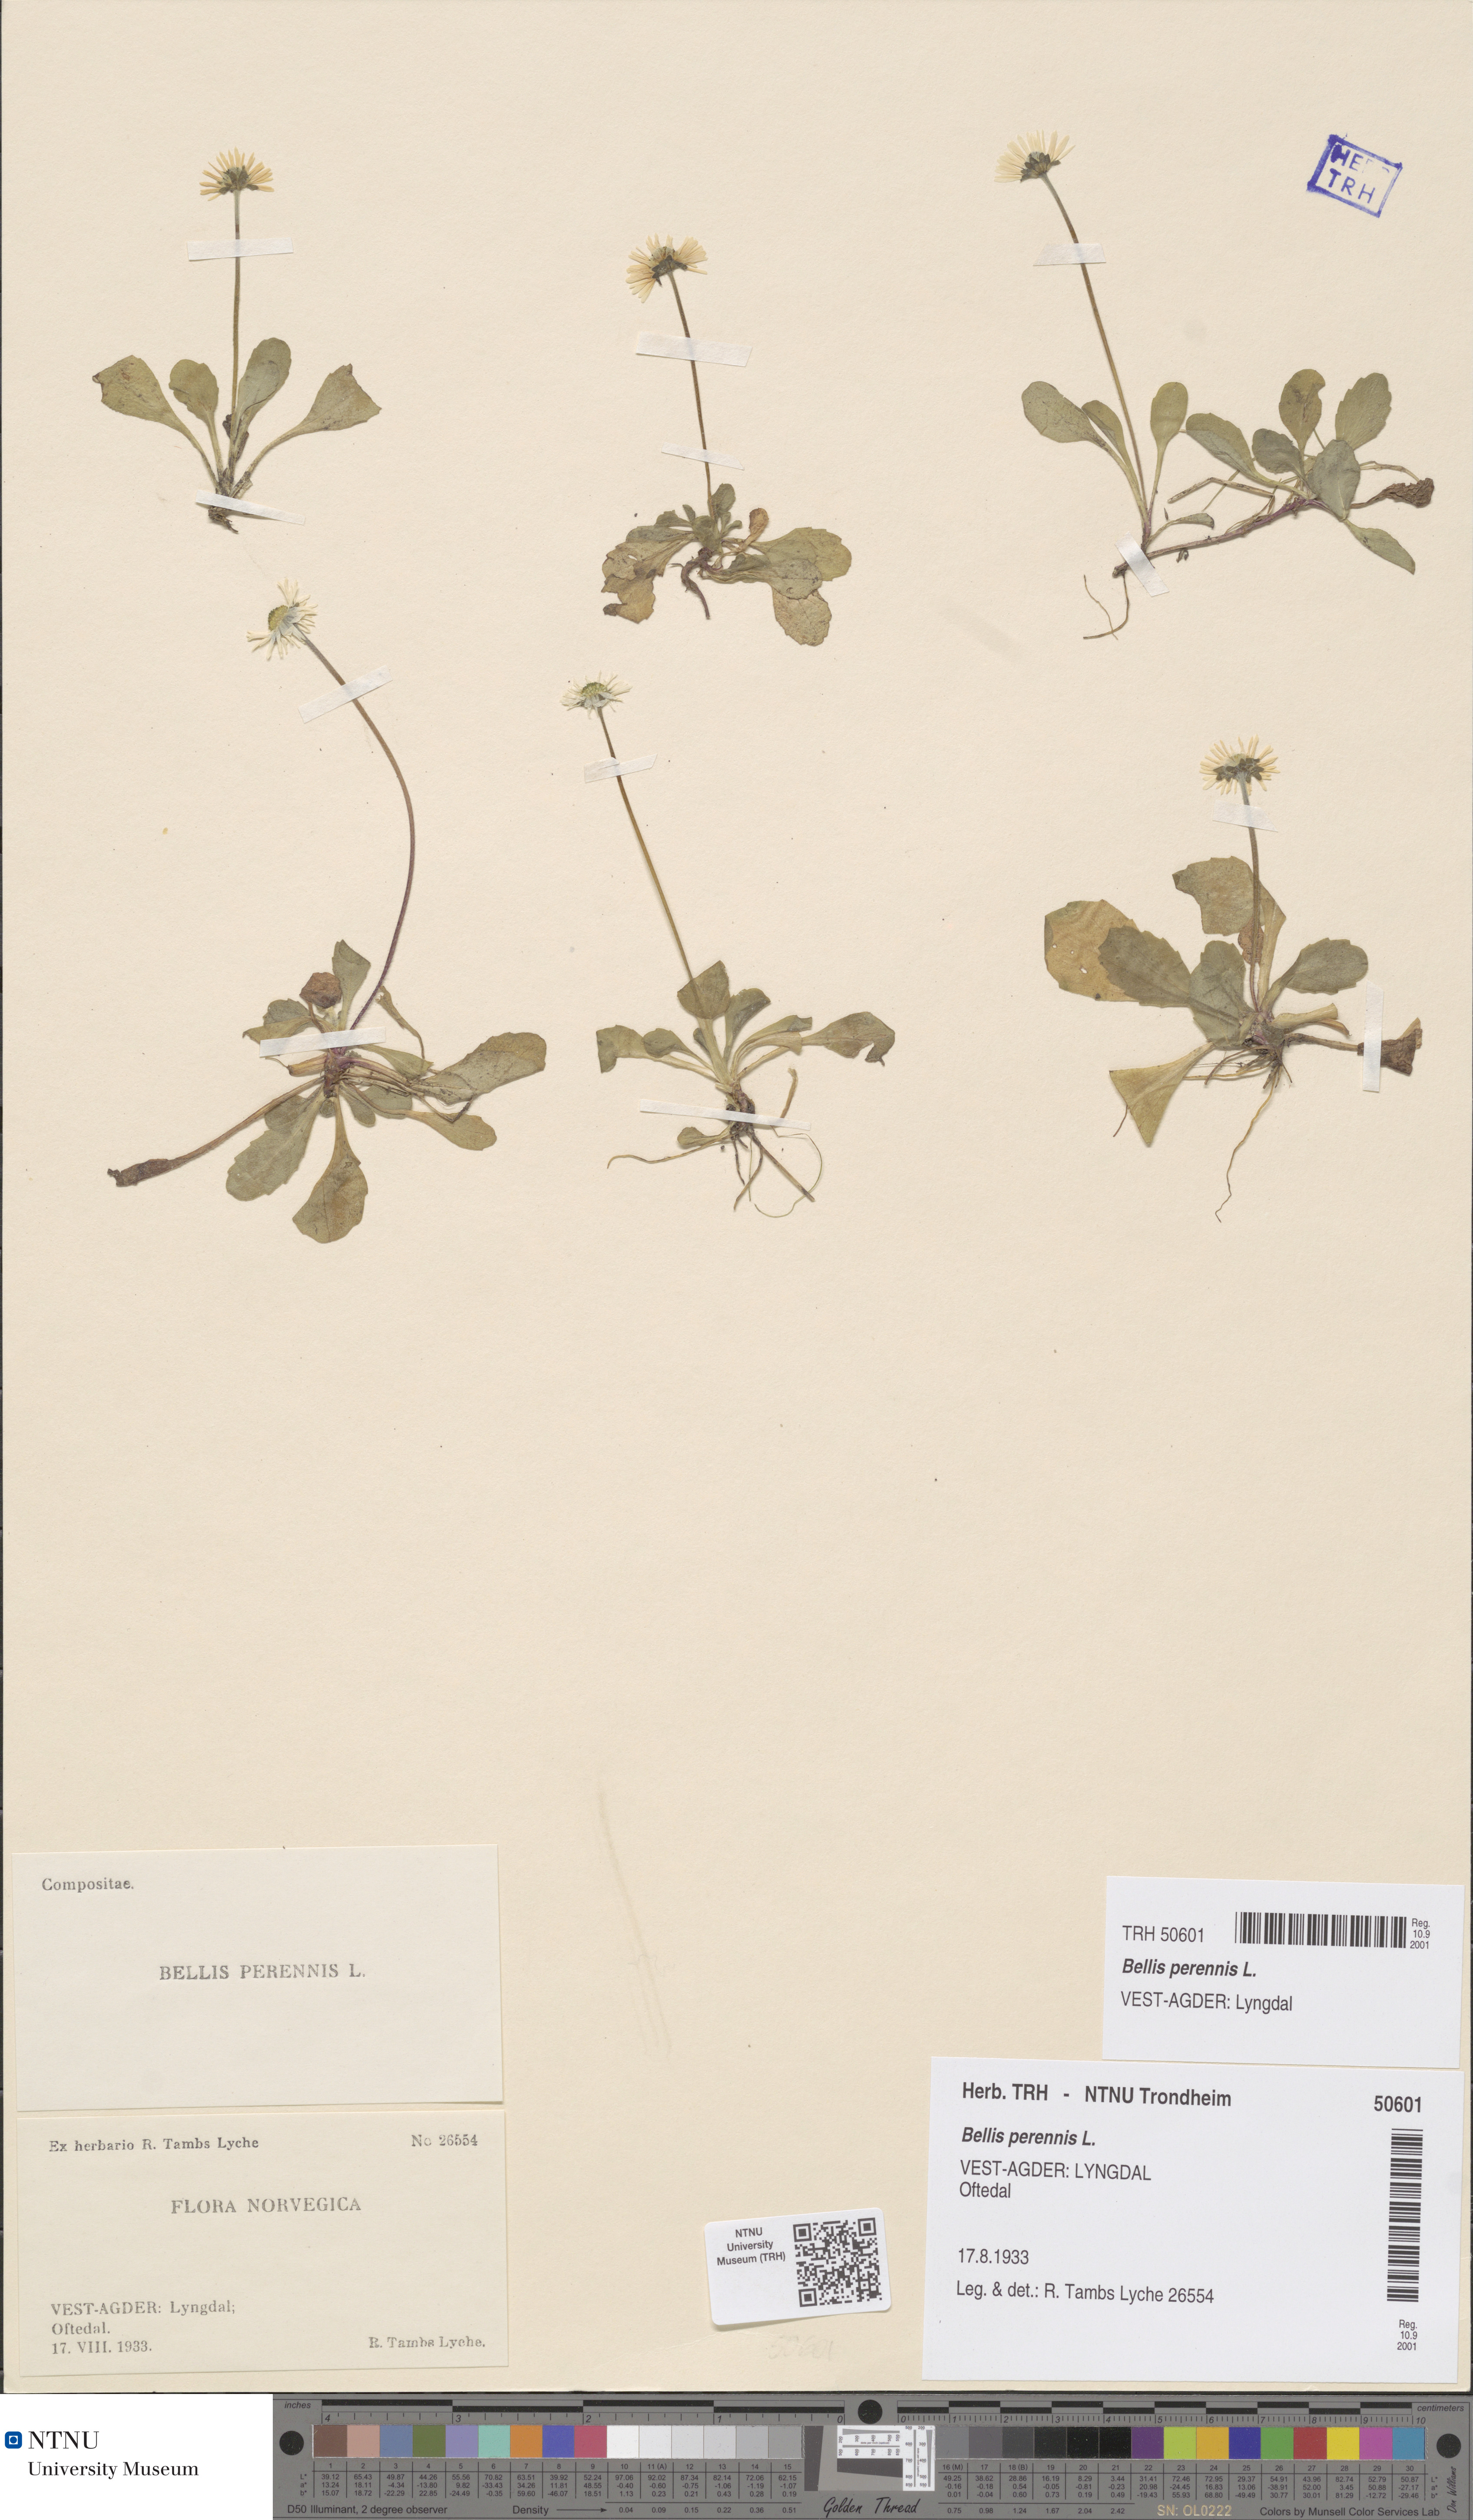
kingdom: Plantae
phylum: Tracheophyta
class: Magnoliopsida
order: Asterales
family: Asteraceae
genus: Bellis
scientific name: Bellis perennis
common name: Lawndaisy
